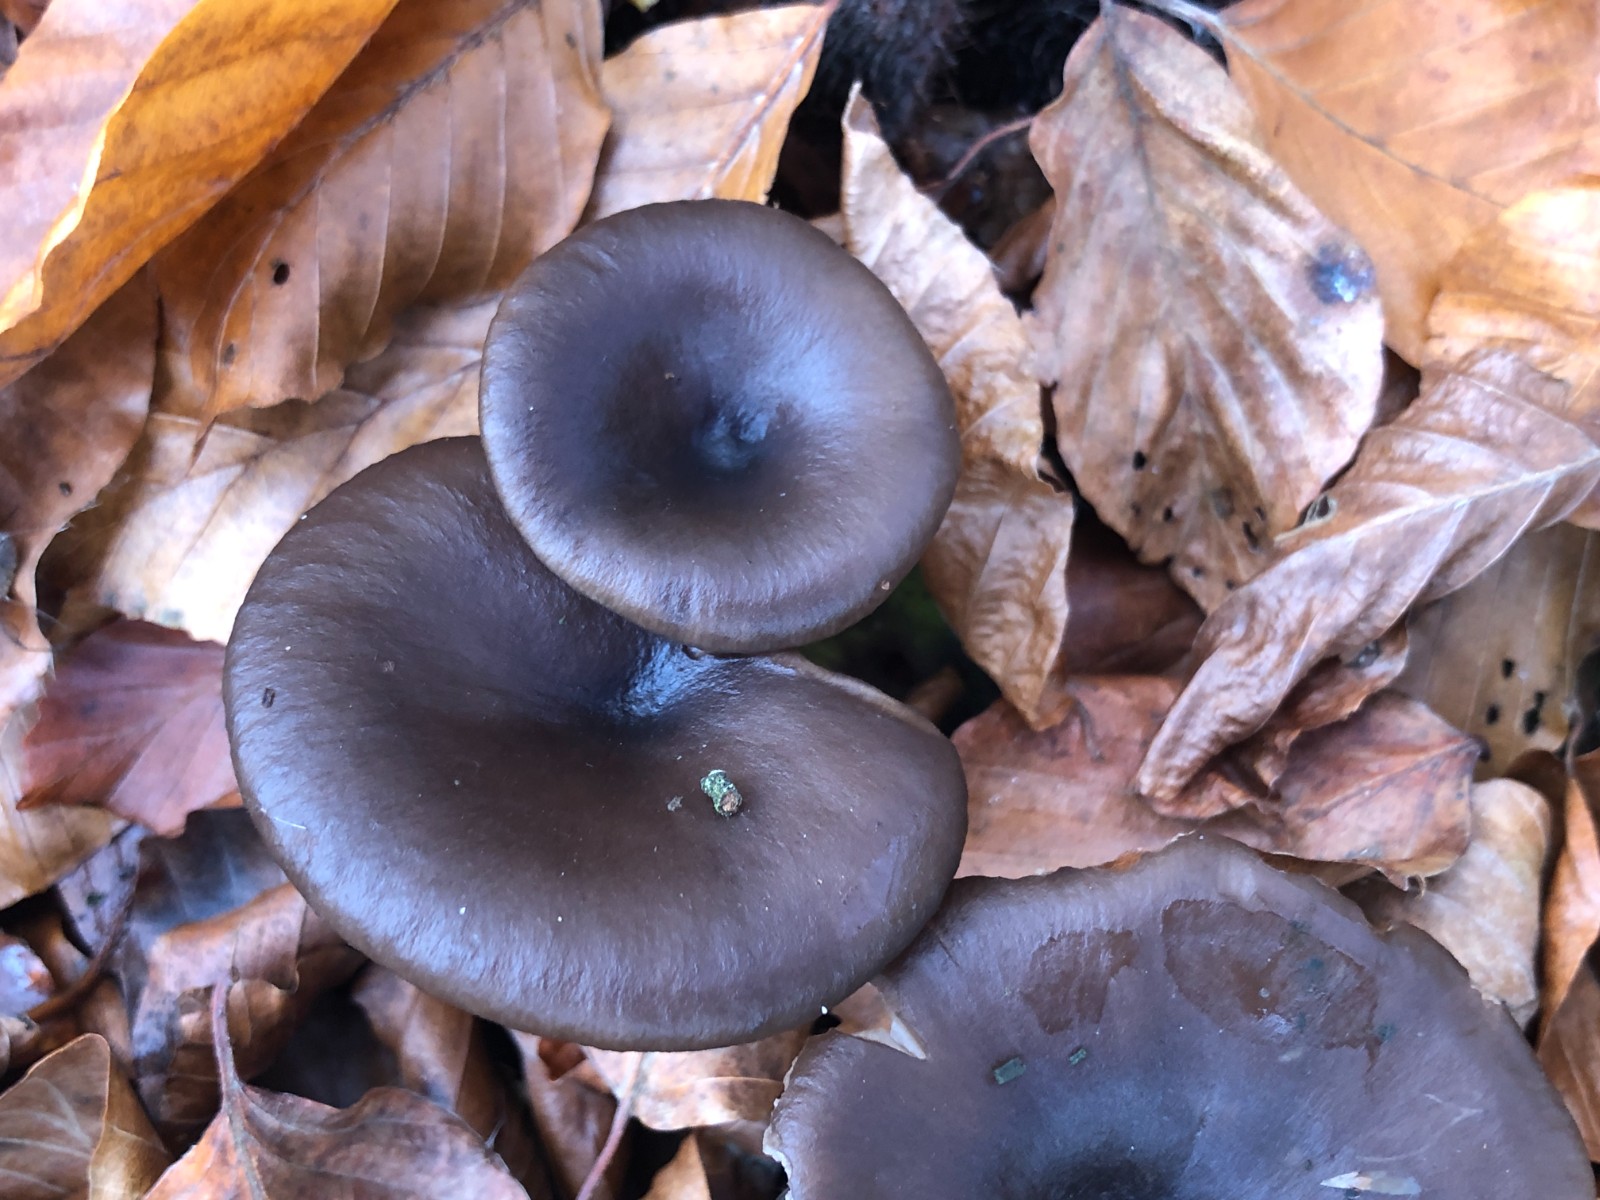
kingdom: Fungi
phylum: Basidiomycota
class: Agaricomycetes
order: Agaricales
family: Pseudoclitocybaceae
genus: Pseudoclitocybe
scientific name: Pseudoclitocybe cyathiformis
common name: almindelig bægertragthat
